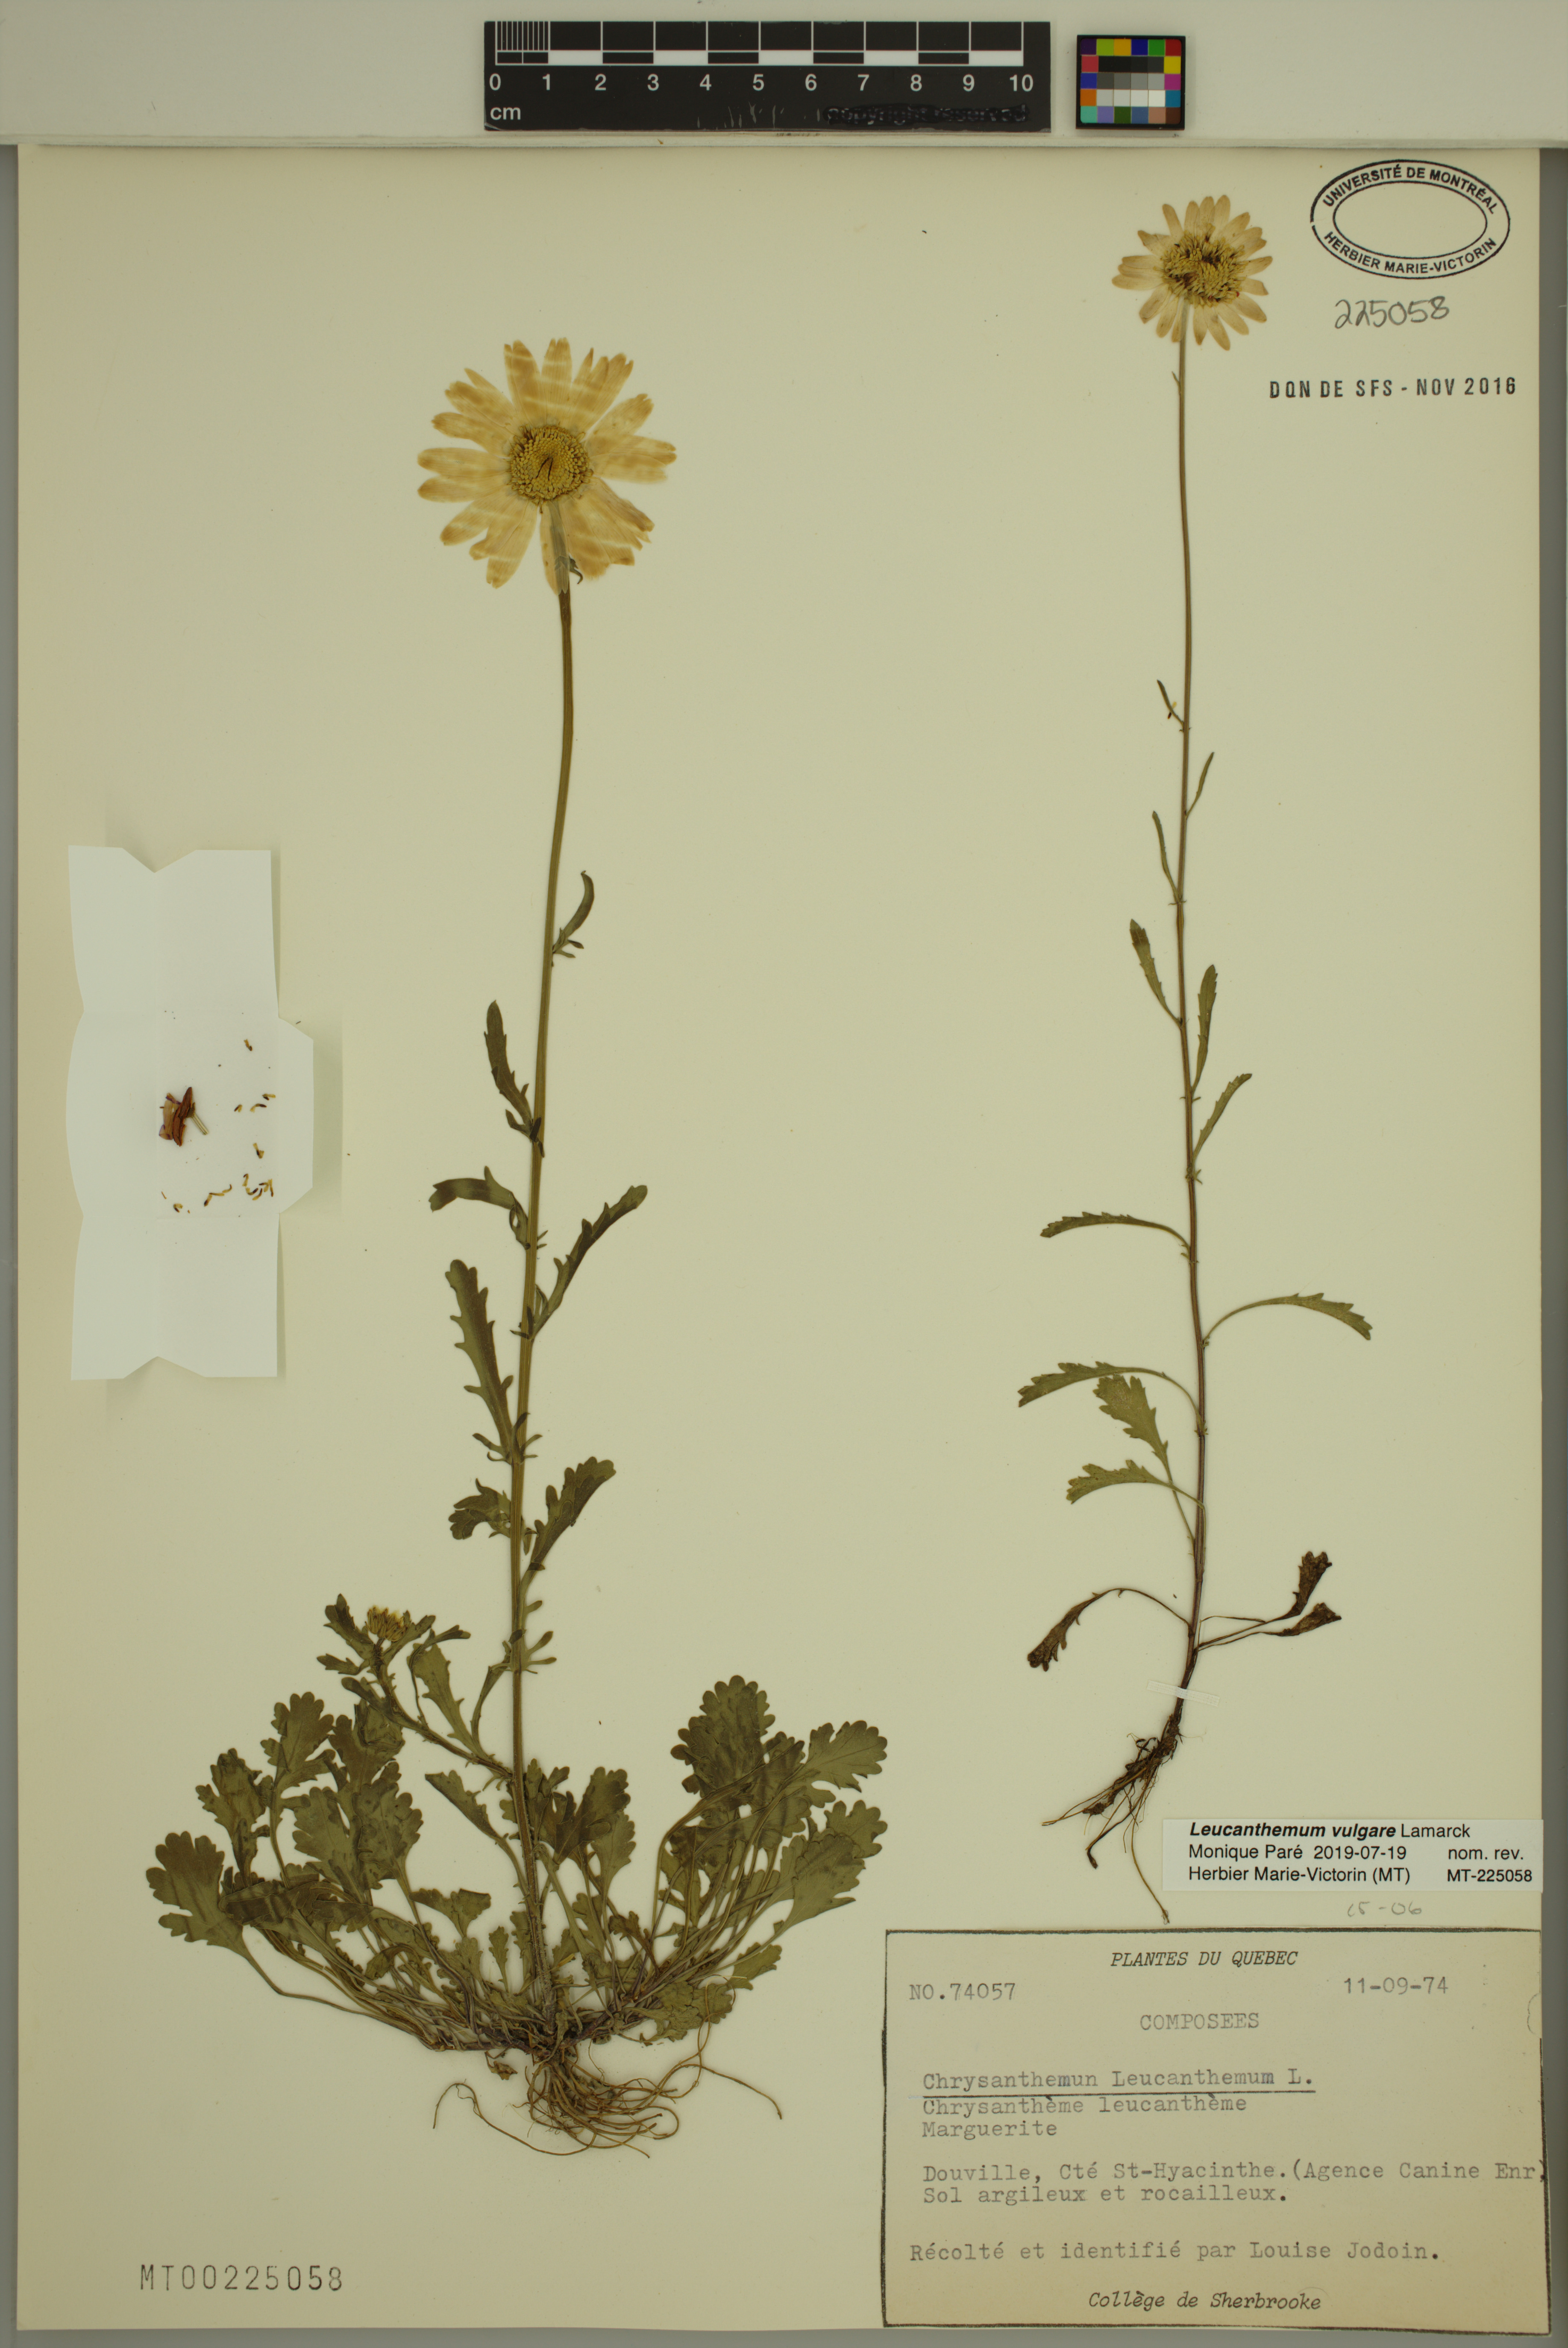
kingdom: Plantae
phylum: Tracheophyta
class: Magnoliopsida
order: Asterales
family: Asteraceae
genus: Leucanthemum
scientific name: Leucanthemum vulgare
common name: Oxeye daisy
